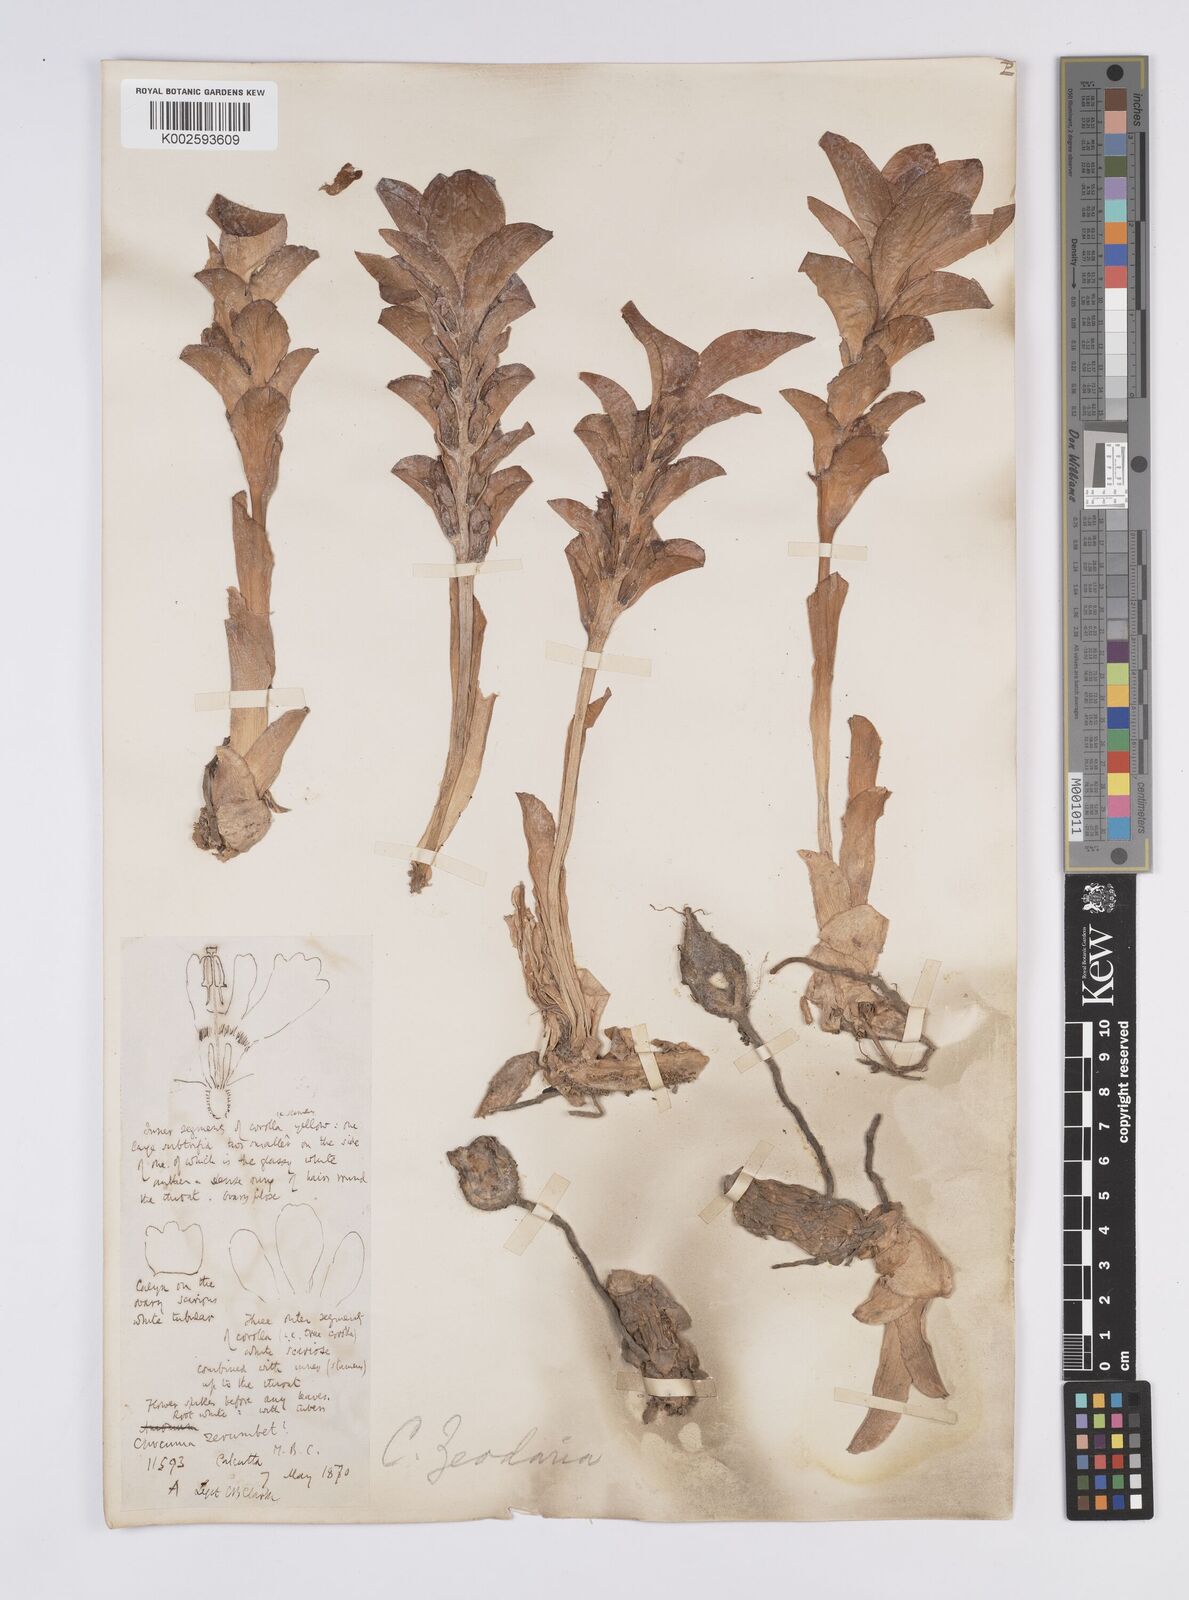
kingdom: Plantae
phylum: Tracheophyta
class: Liliopsida
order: Zingiberales
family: Zingiberaceae
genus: Curcuma
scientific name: Curcuma aromatica
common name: Wild turmeric
